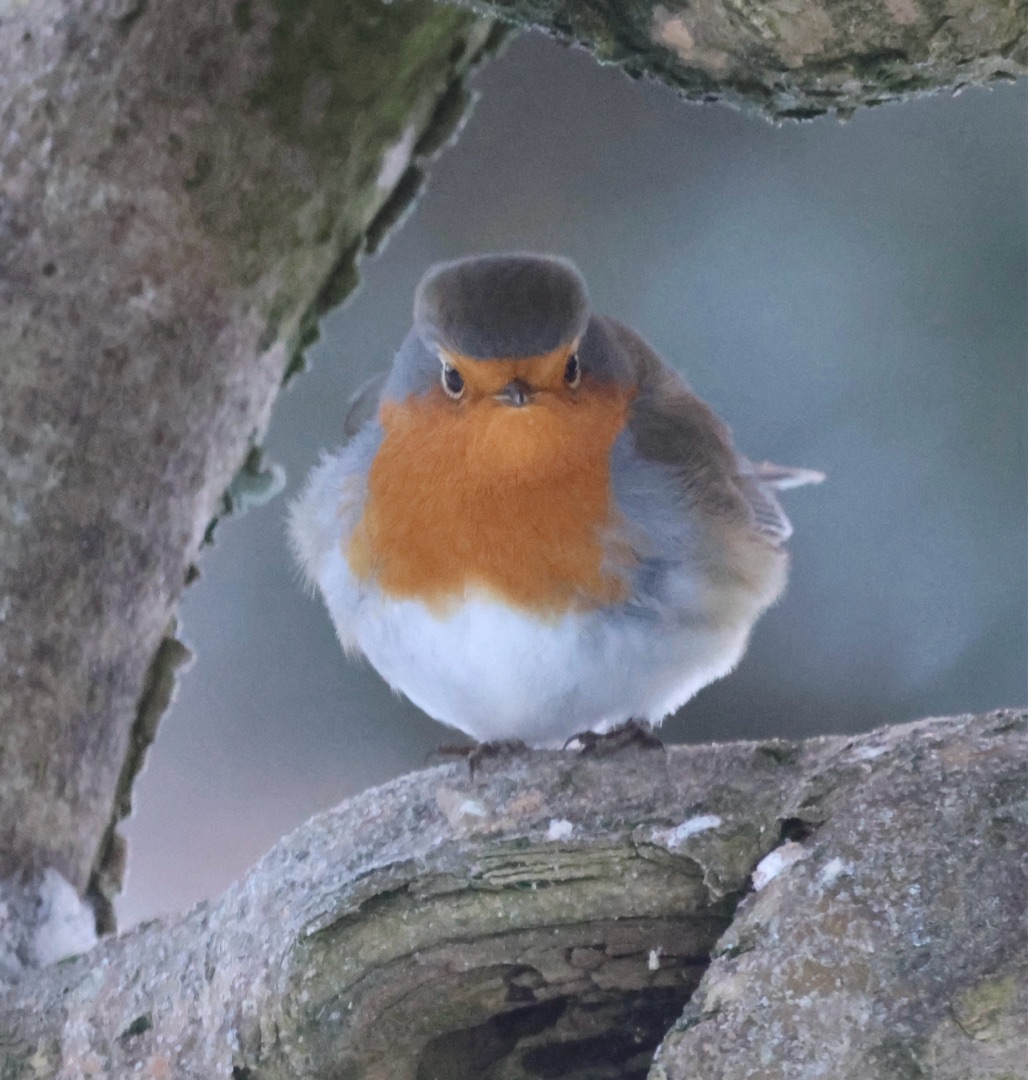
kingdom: Animalia
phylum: Chordata
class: Aves
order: Passeriformes
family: Muscicapidae
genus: Erithacus
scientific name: Erithacus rubecula
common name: Rødhals/rødkælk
